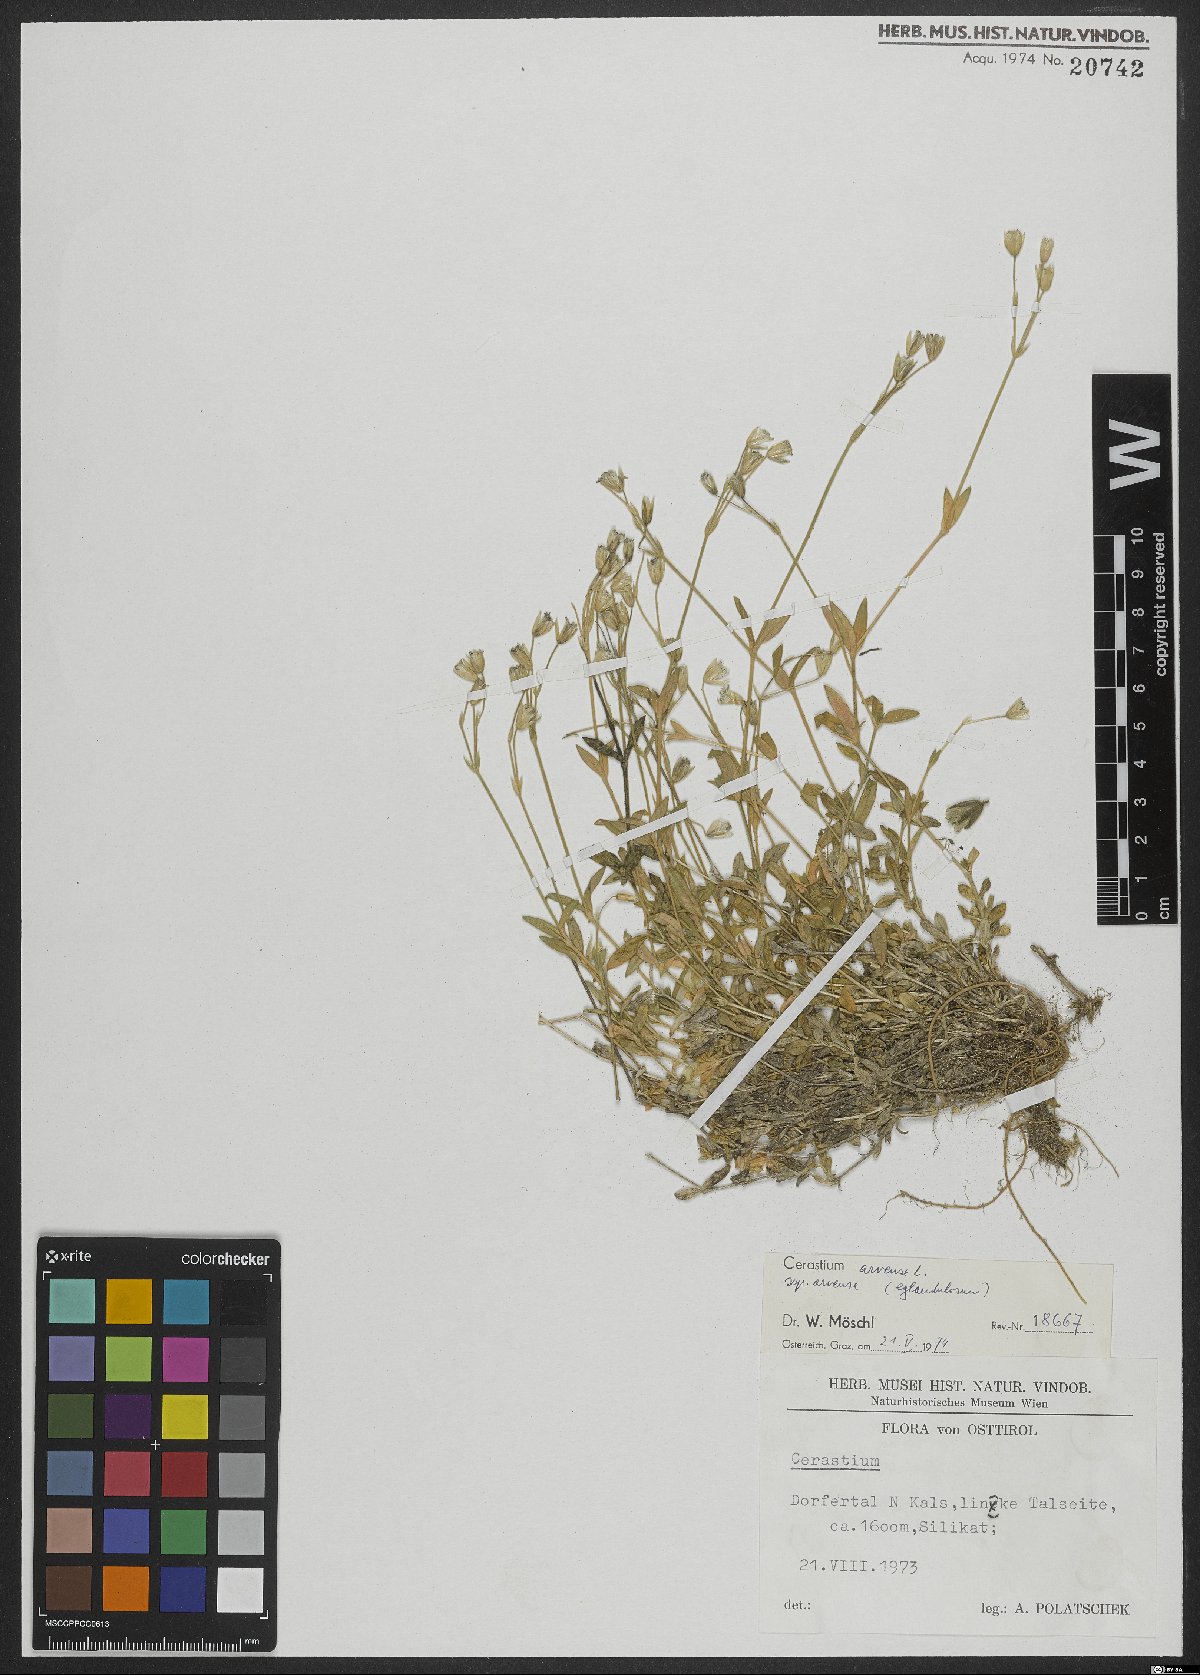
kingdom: Plantae
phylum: Tracheophyta
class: Magnoliopsida
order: Caryophyllales
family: Caryophyllaceae
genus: Cerastium
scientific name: Cerastium arvense
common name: Field mouse-ear
